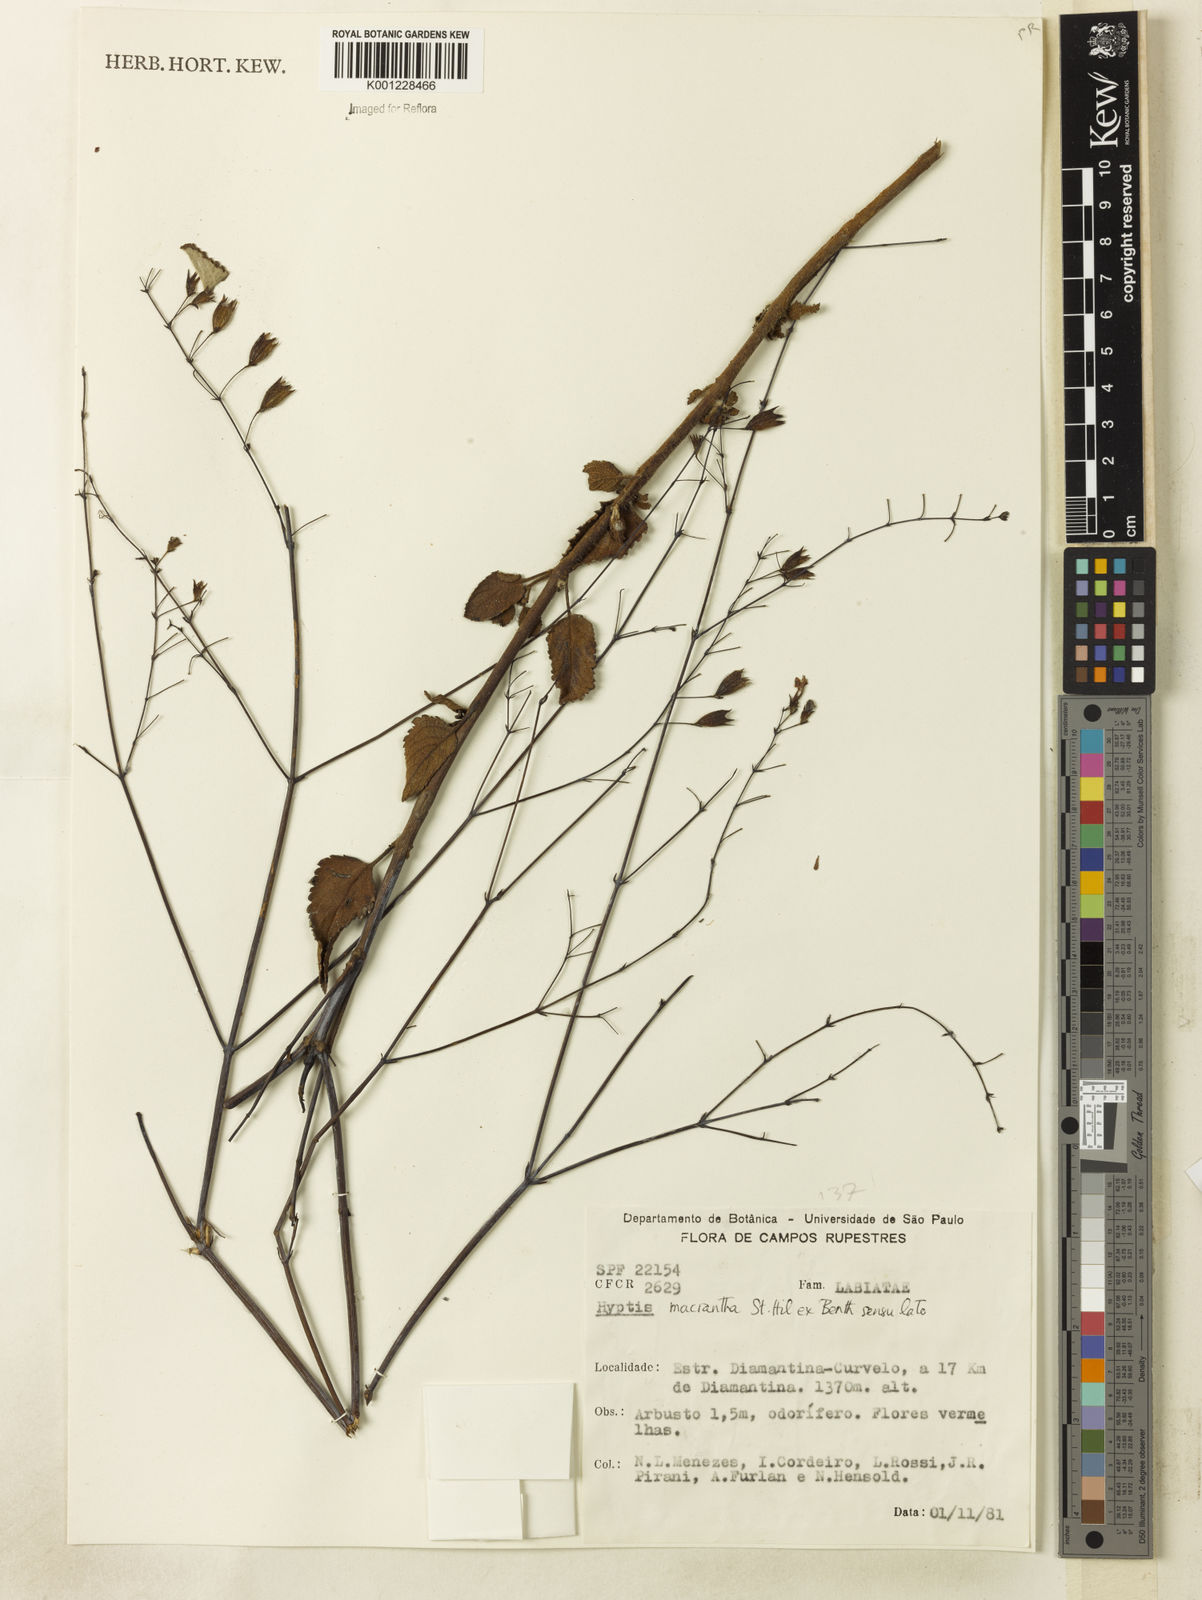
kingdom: Plantae
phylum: Tracheophyta
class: Magnoliopsida
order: Lamiales
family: Lamiaceae
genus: Hypenia
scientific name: Hypenia reticulata
